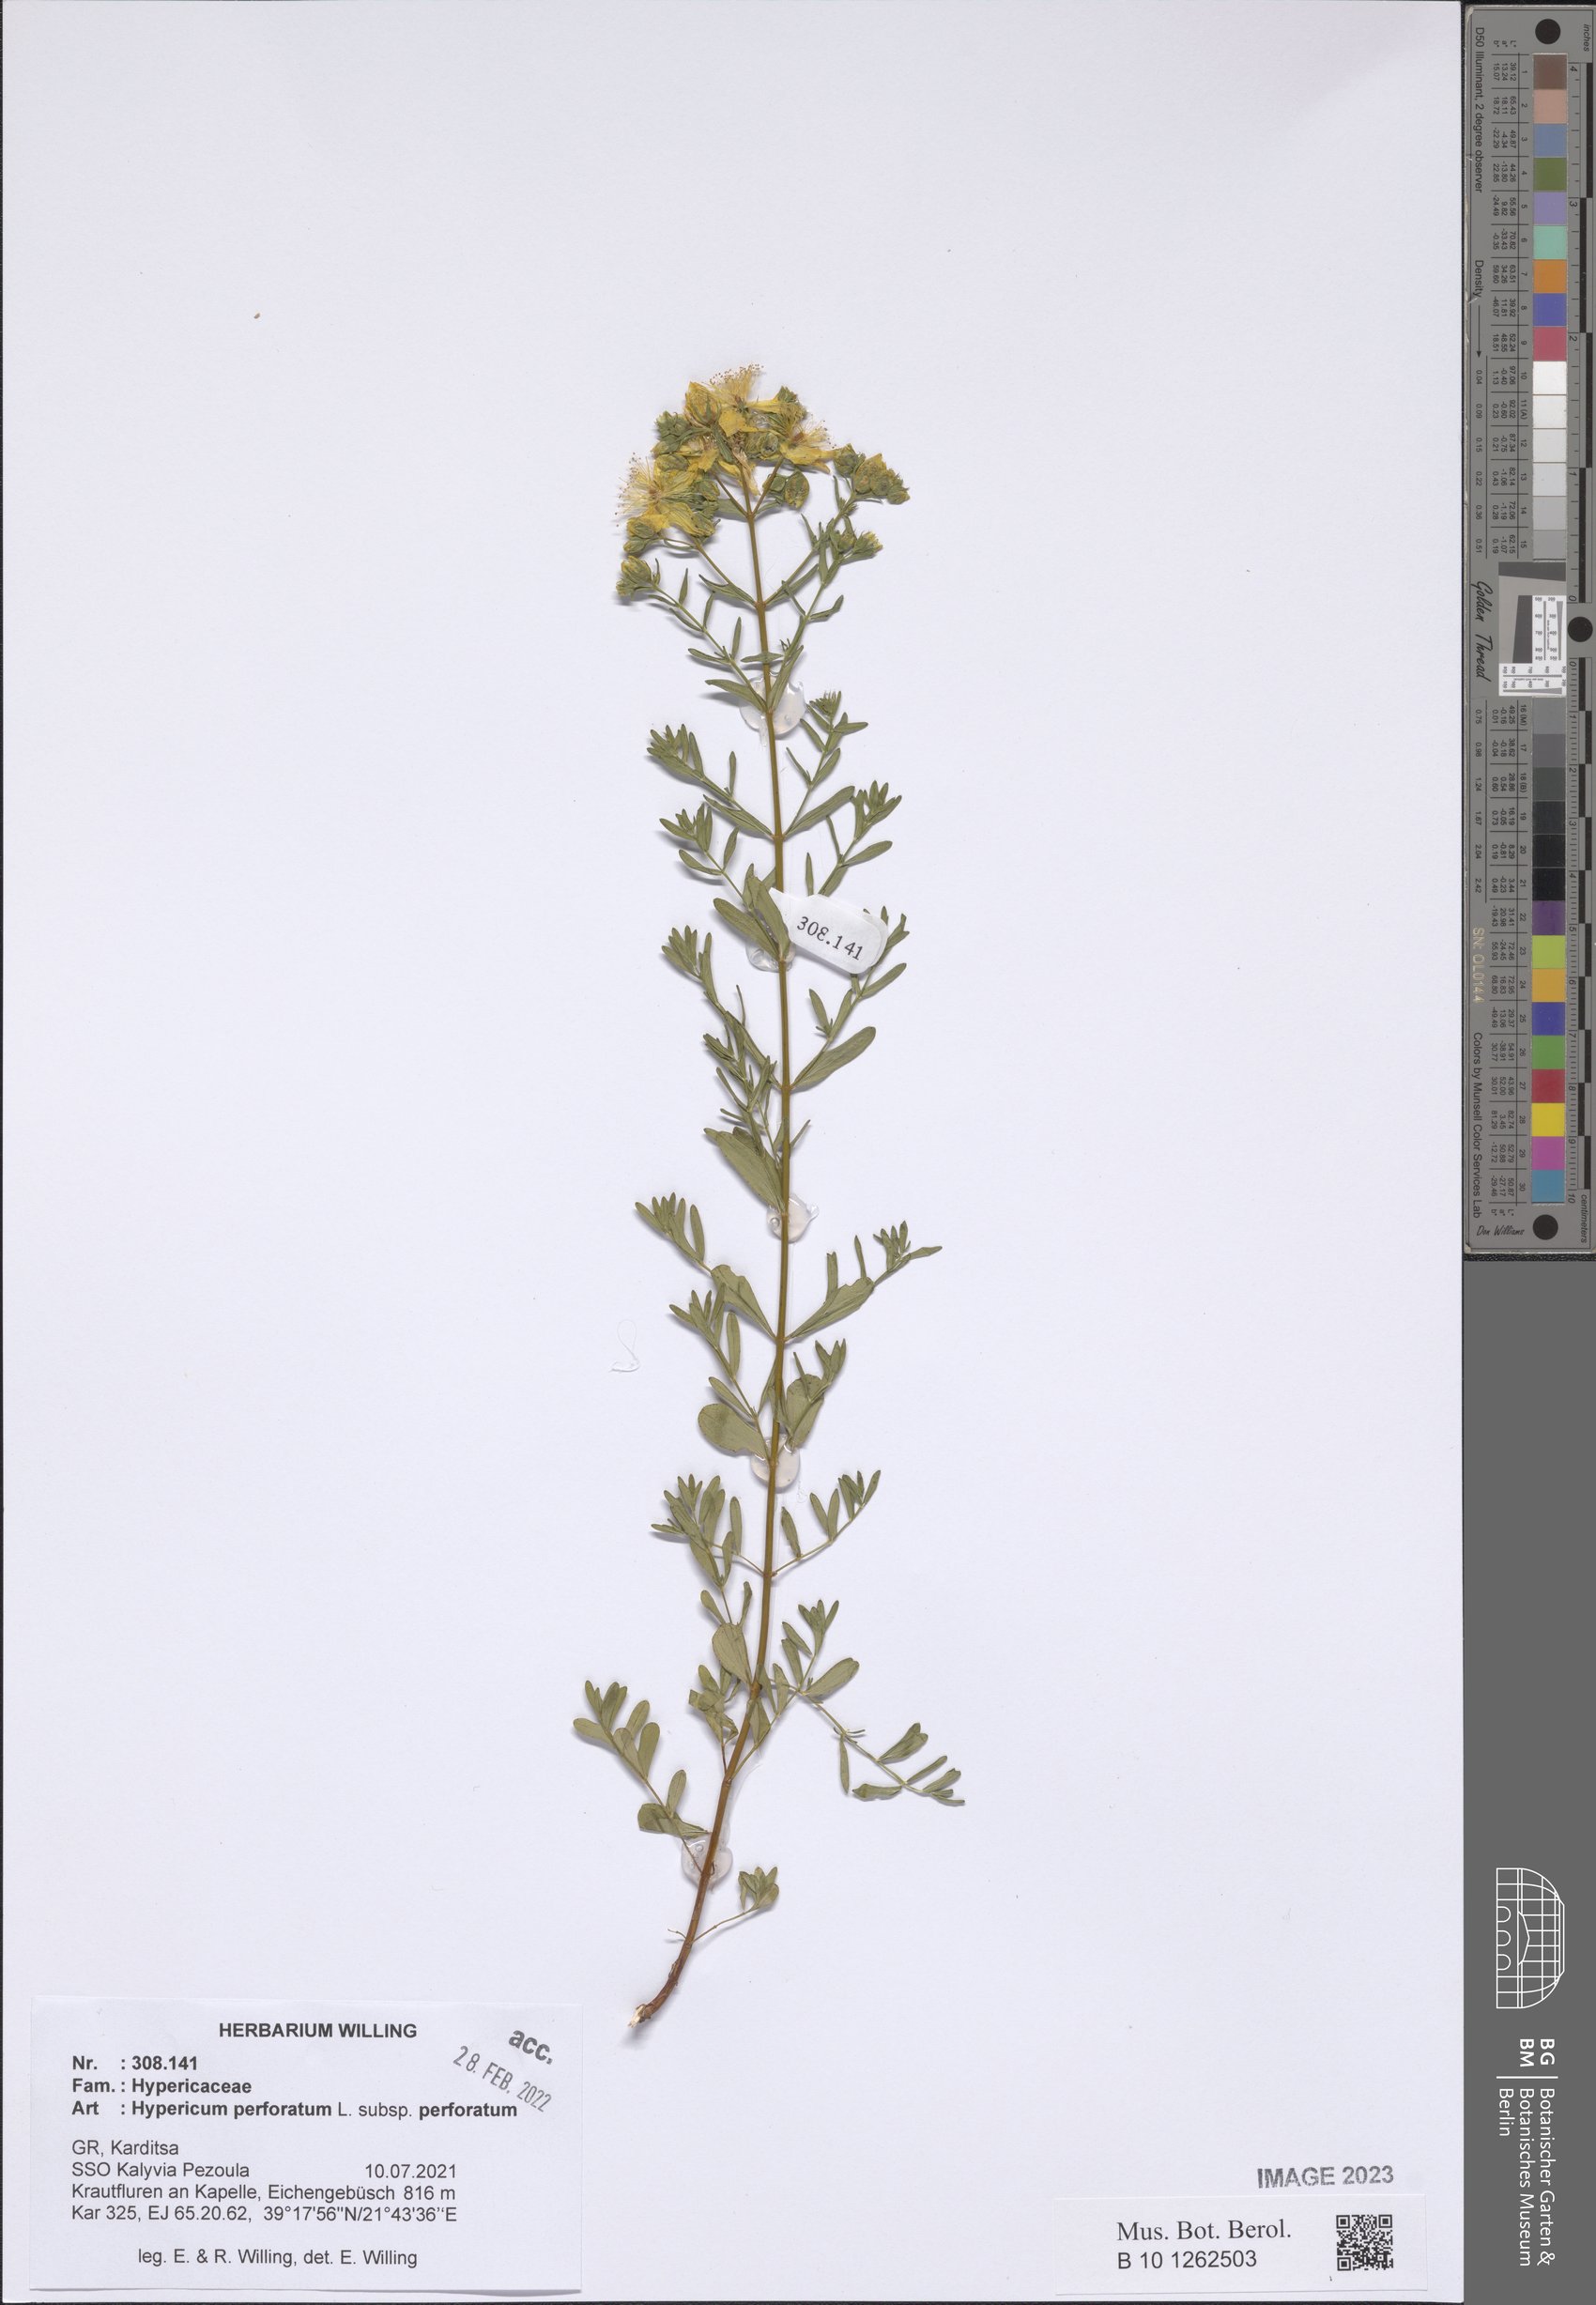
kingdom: Plantae
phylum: Tracheophyta
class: Magnoliopsida
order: Malpighiales
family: Hypericaceae
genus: Hypericum
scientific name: Hypericum perforatum
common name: Common st. johnswort
